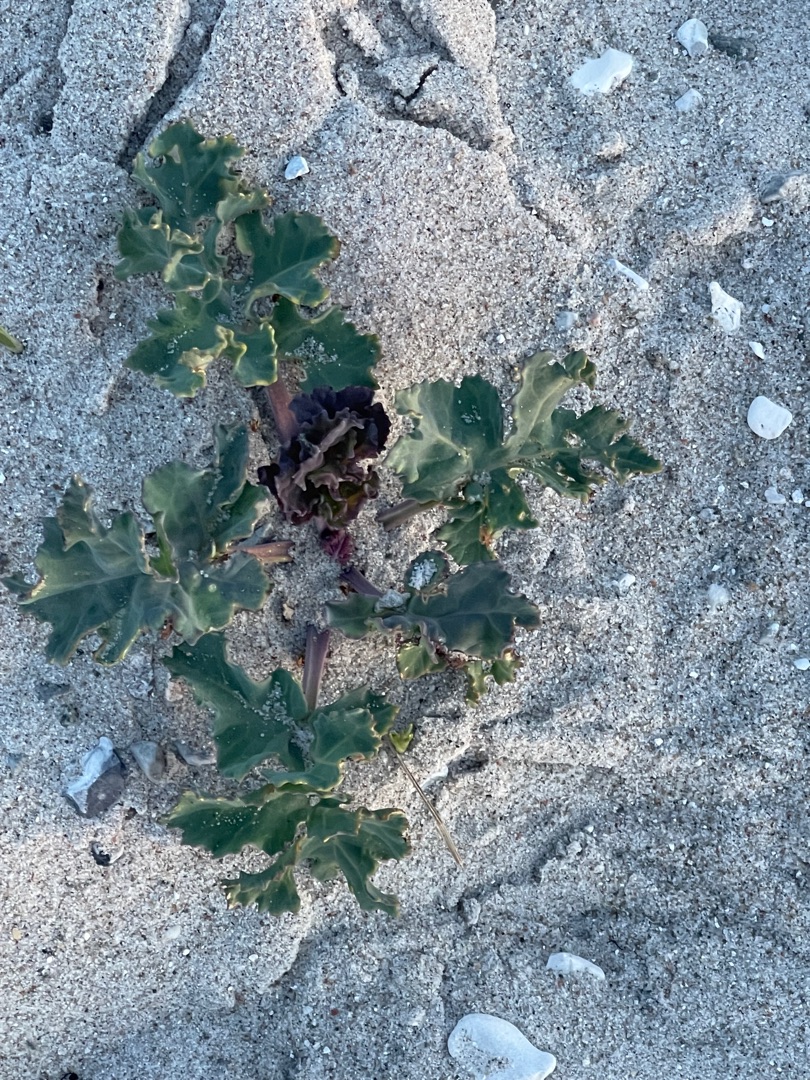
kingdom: Plantae
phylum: Tracheophyta
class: Magnoliopsida
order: Brassicales
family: Brassicaceae
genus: Crambe
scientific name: Crambe maritima
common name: Strandkål
